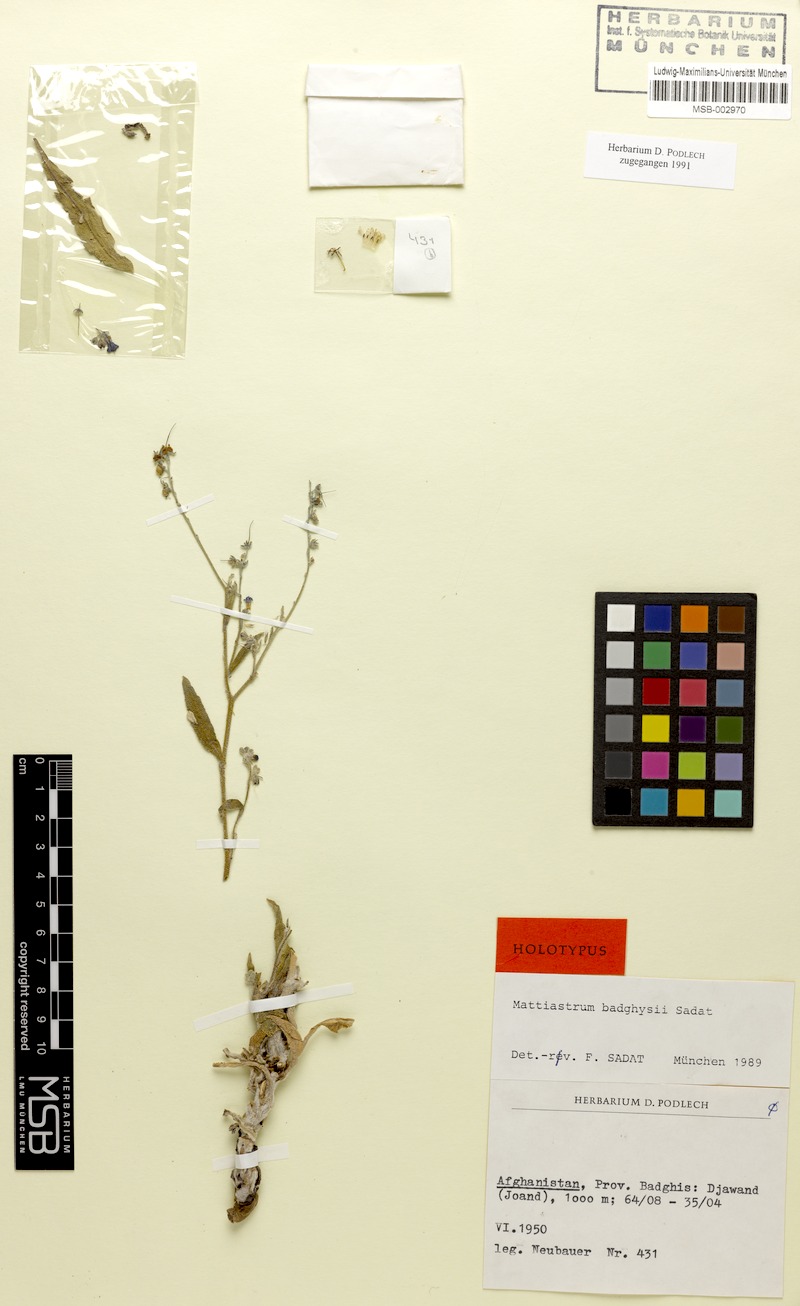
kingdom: Plantae
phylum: Tracheophyta
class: Magnoliopsida
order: Boraginales
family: Boraginaceae
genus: Paracaryum
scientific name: Paracaryum badghysii
